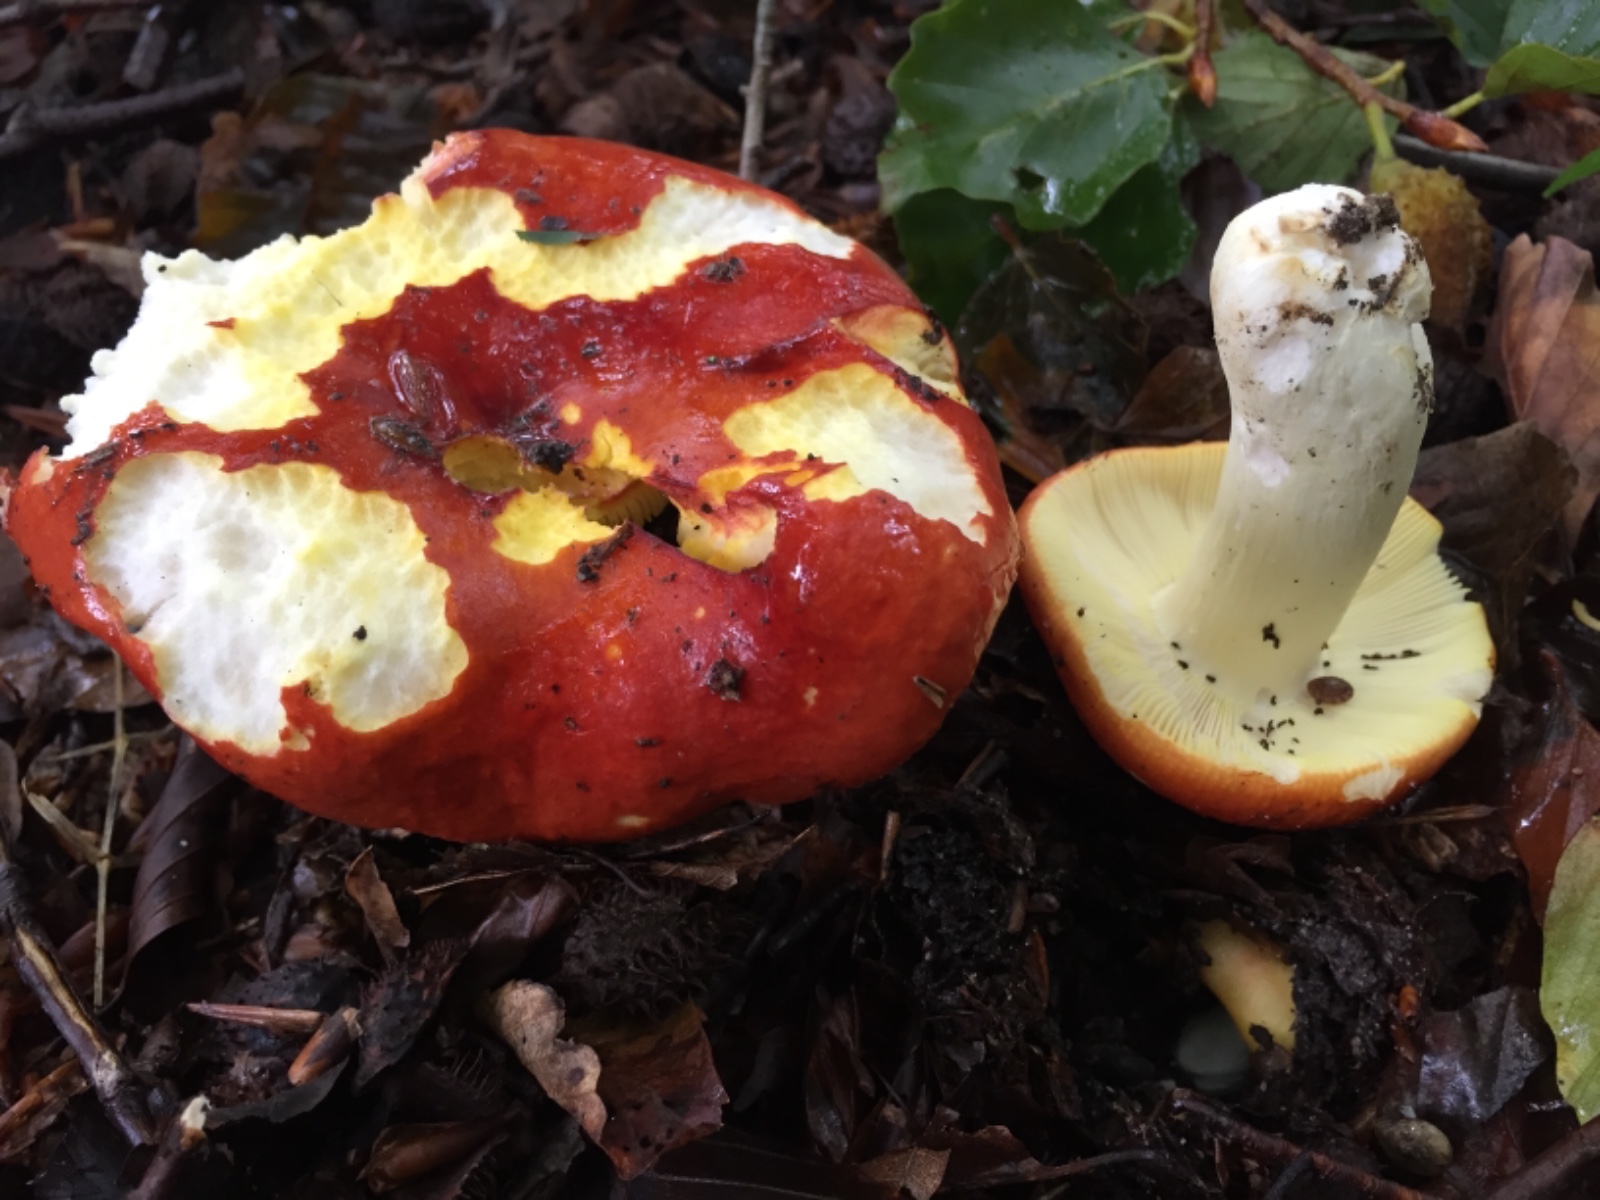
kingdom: Fungi
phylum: Basidiomycota
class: Agaricomycetes
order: Russulales
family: Russulaceae
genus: Russula
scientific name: Russula aurea
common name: gylden skørhat
